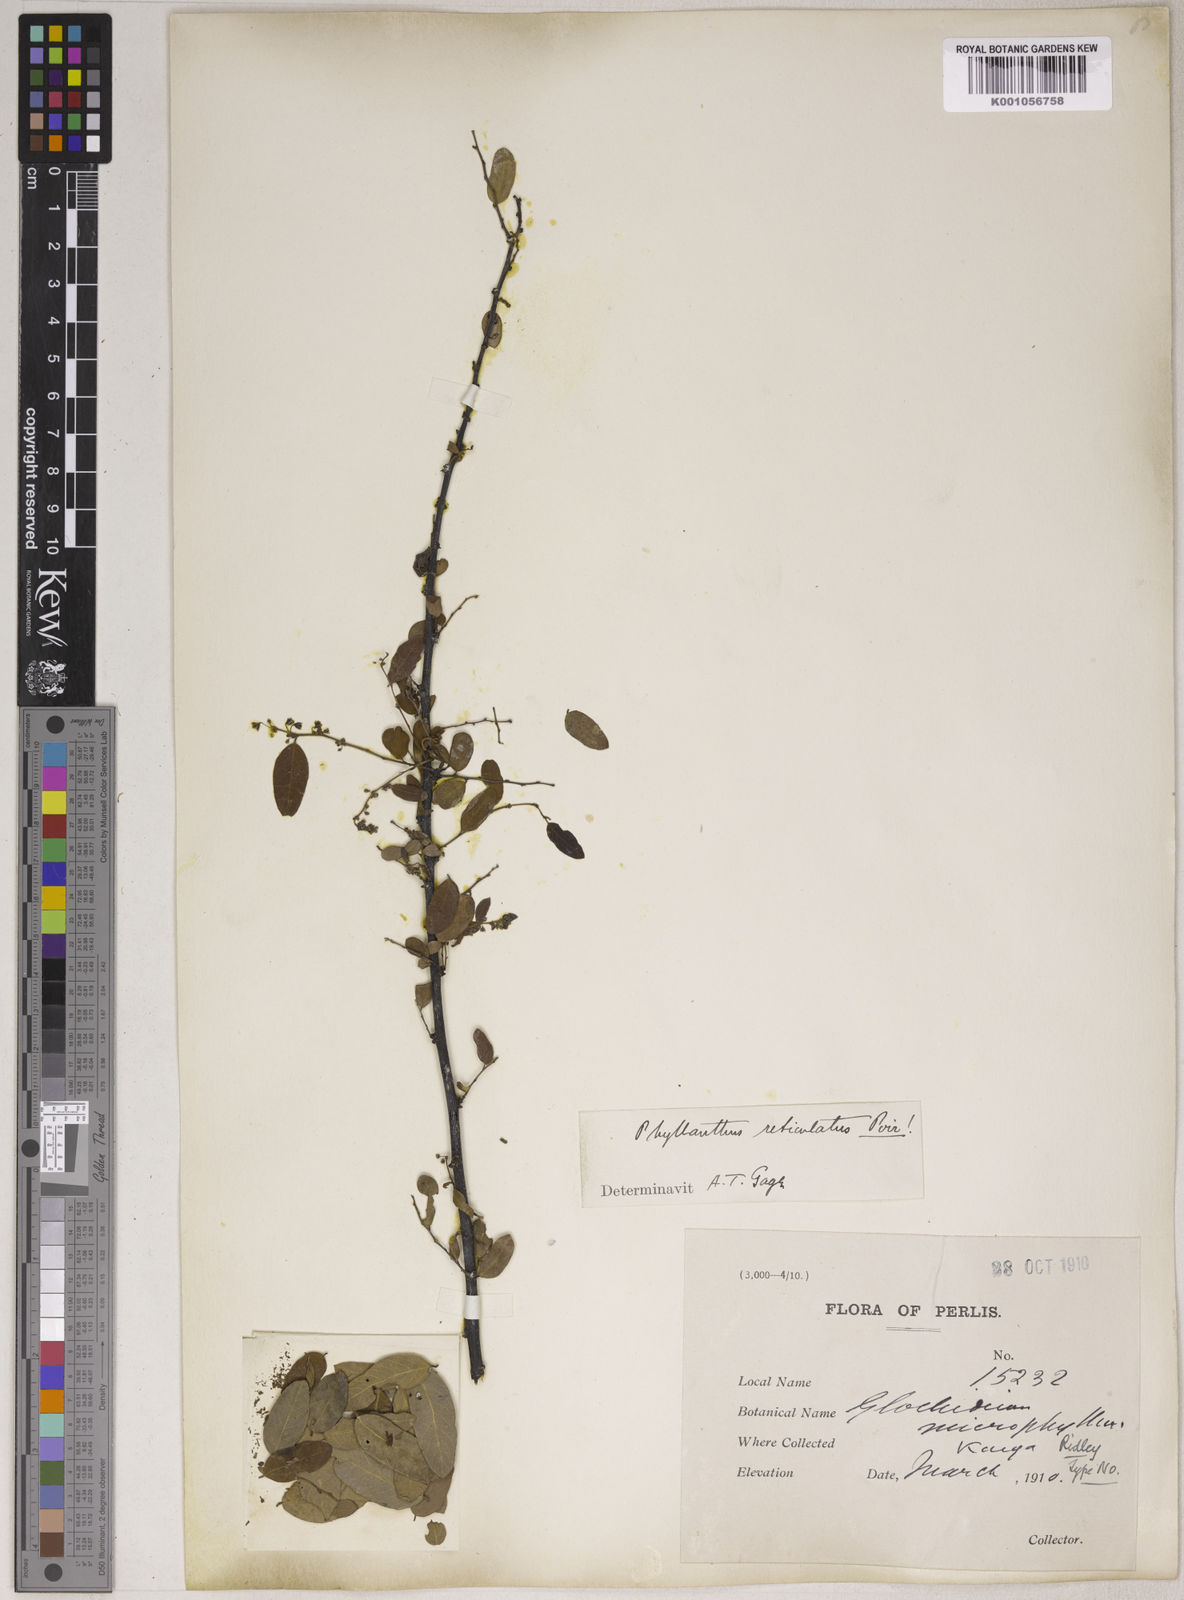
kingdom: Plantae
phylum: Tracheophyta
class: Magnoliopsida
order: Malpighiales
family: Phyllanthaceae
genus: Phyllanthus
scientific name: Phyllanthus
